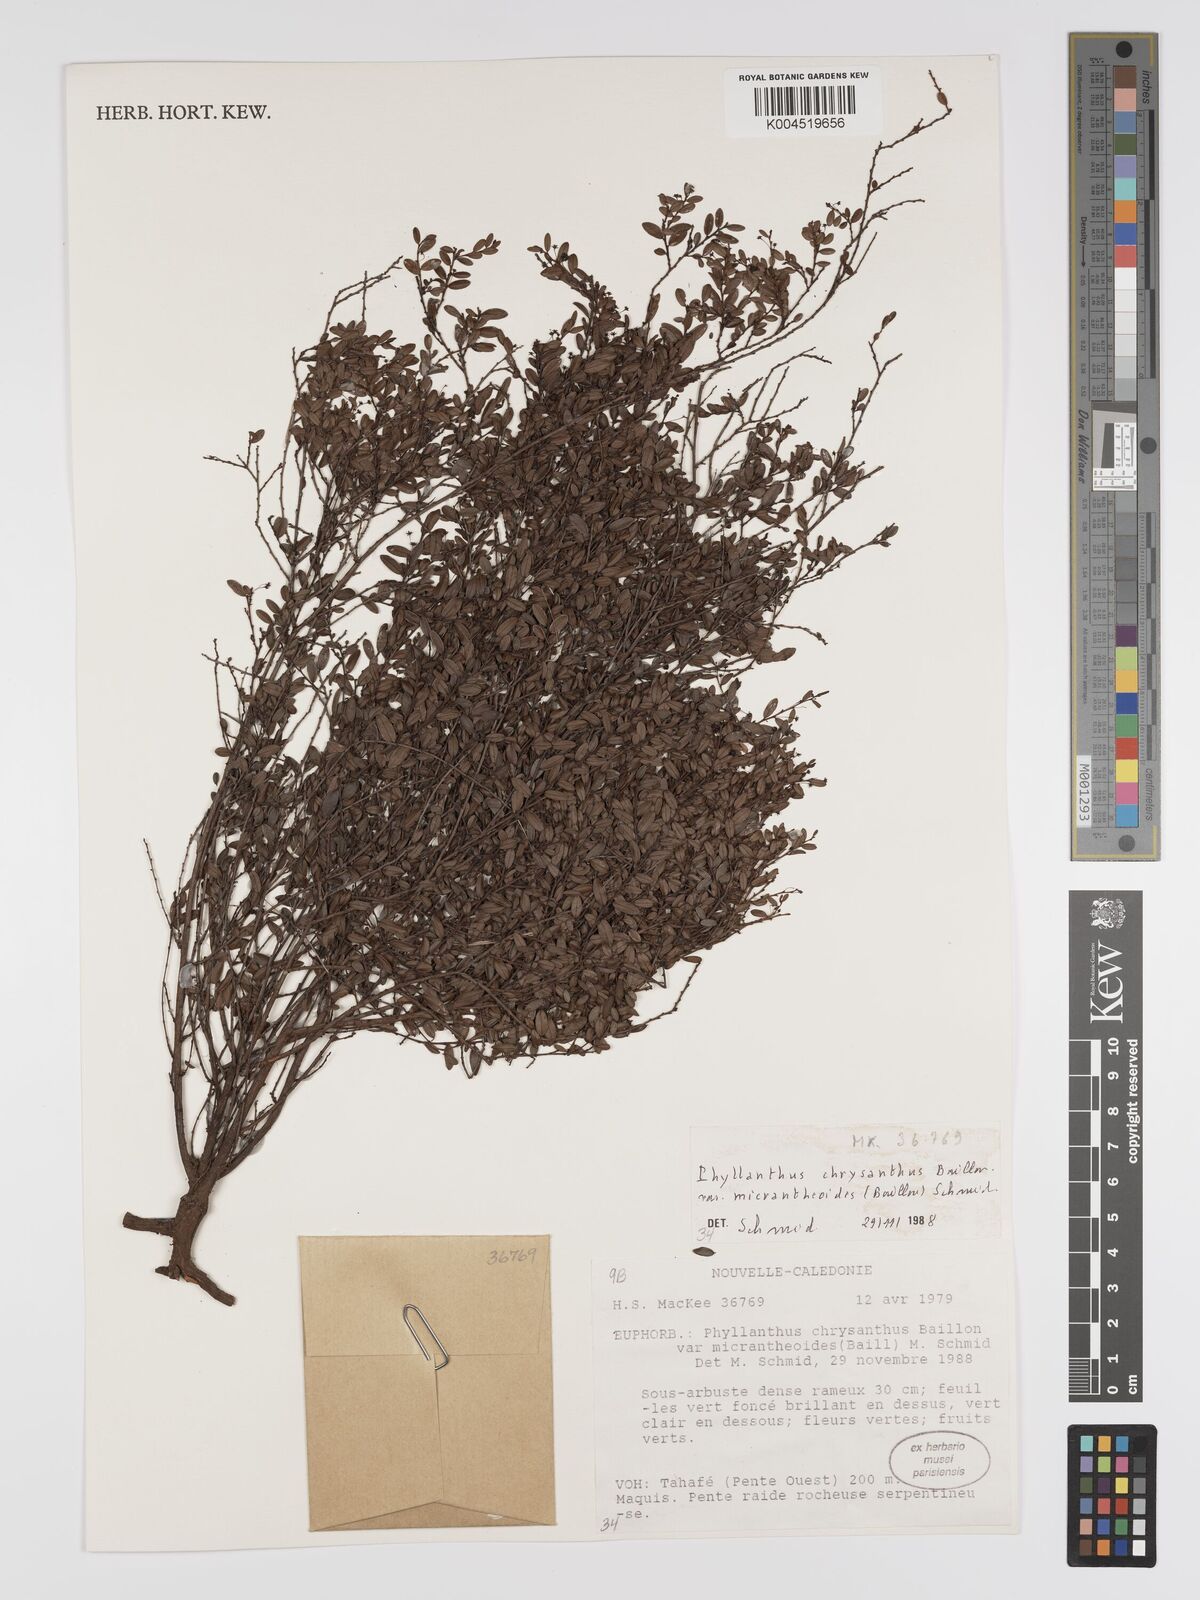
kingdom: Plantae
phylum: Tracheophyta
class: Magnoliopsida
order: Malpighiales
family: Phyllanthaceae
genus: Phyllanthus
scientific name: Phyllanthus chrysanthus
